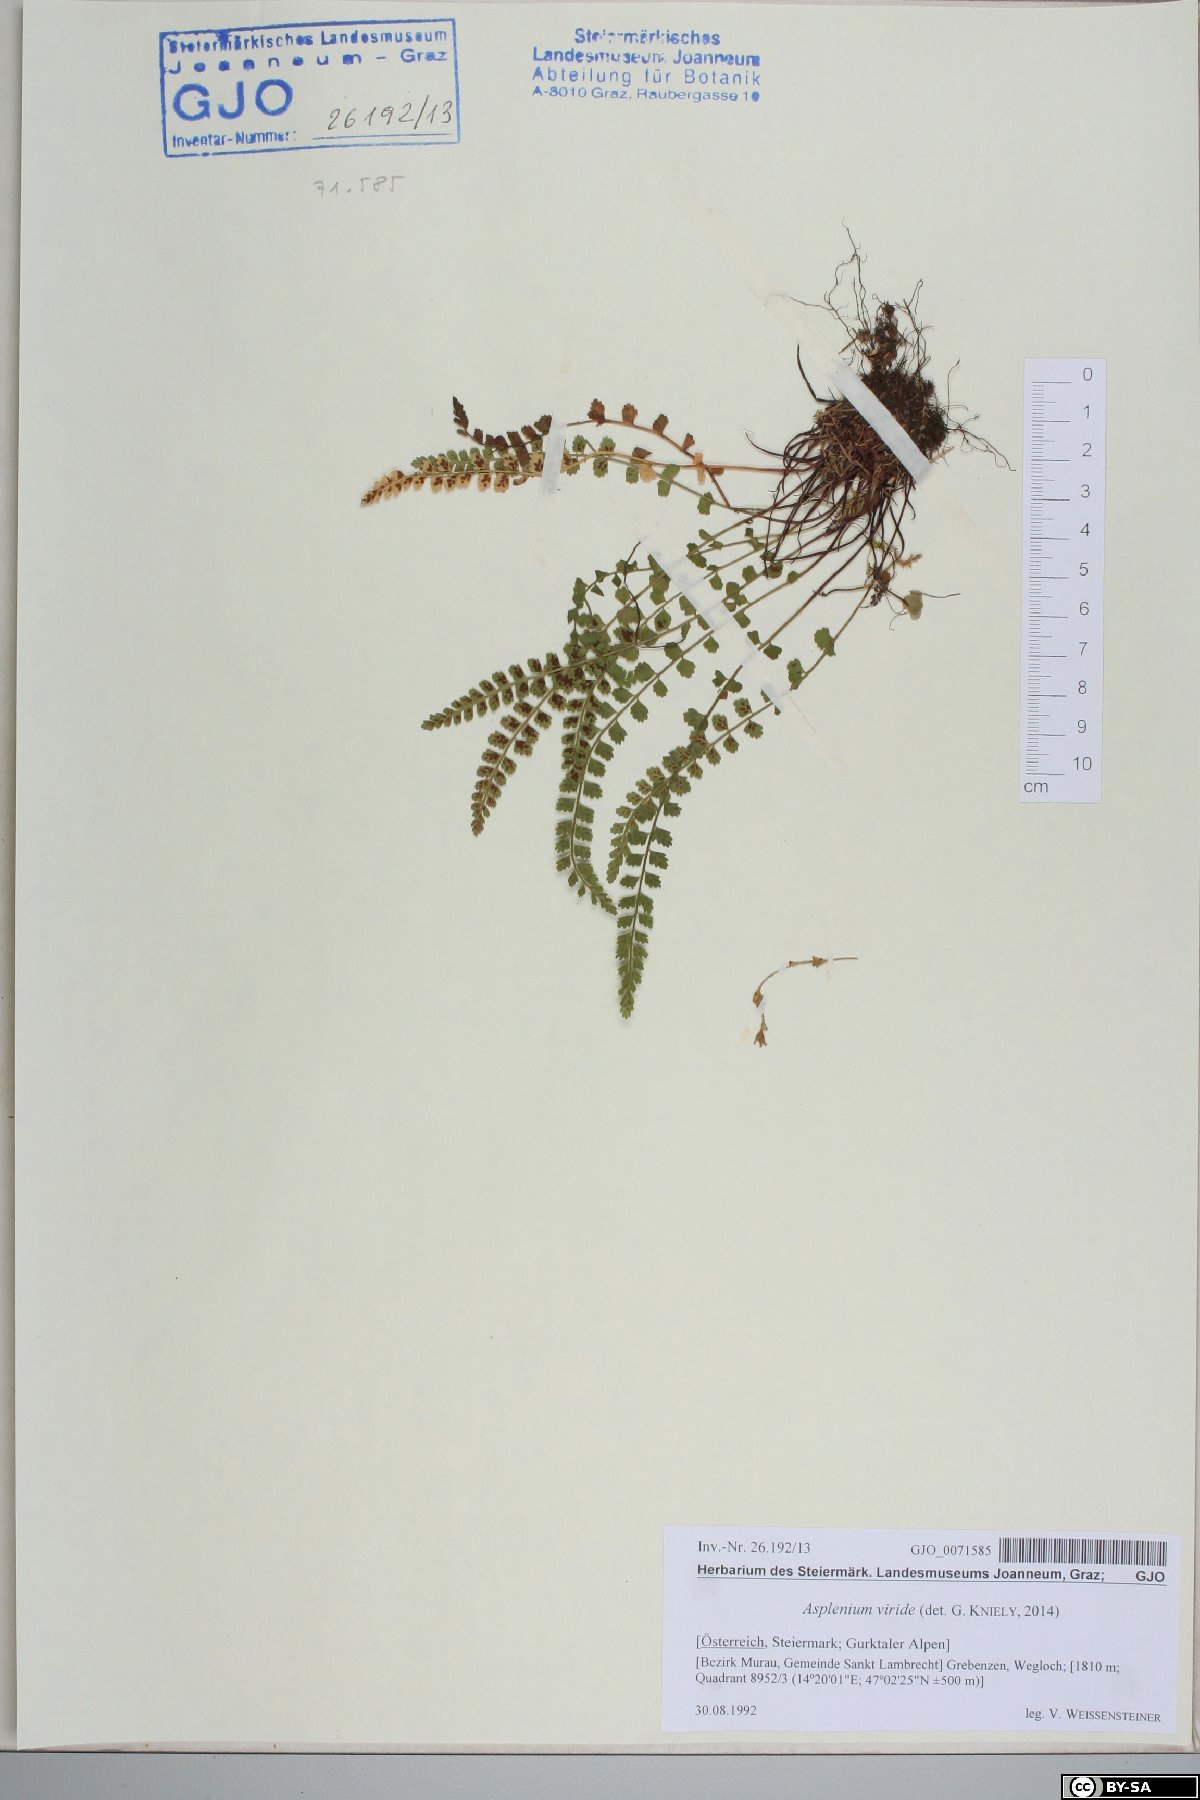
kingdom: Plantae
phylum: Tracheophyta
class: Polypodiopsida
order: Polypodiales
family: Aspleniaceae
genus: Asplenium
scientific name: Asplenium viride
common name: Green spleenwort
